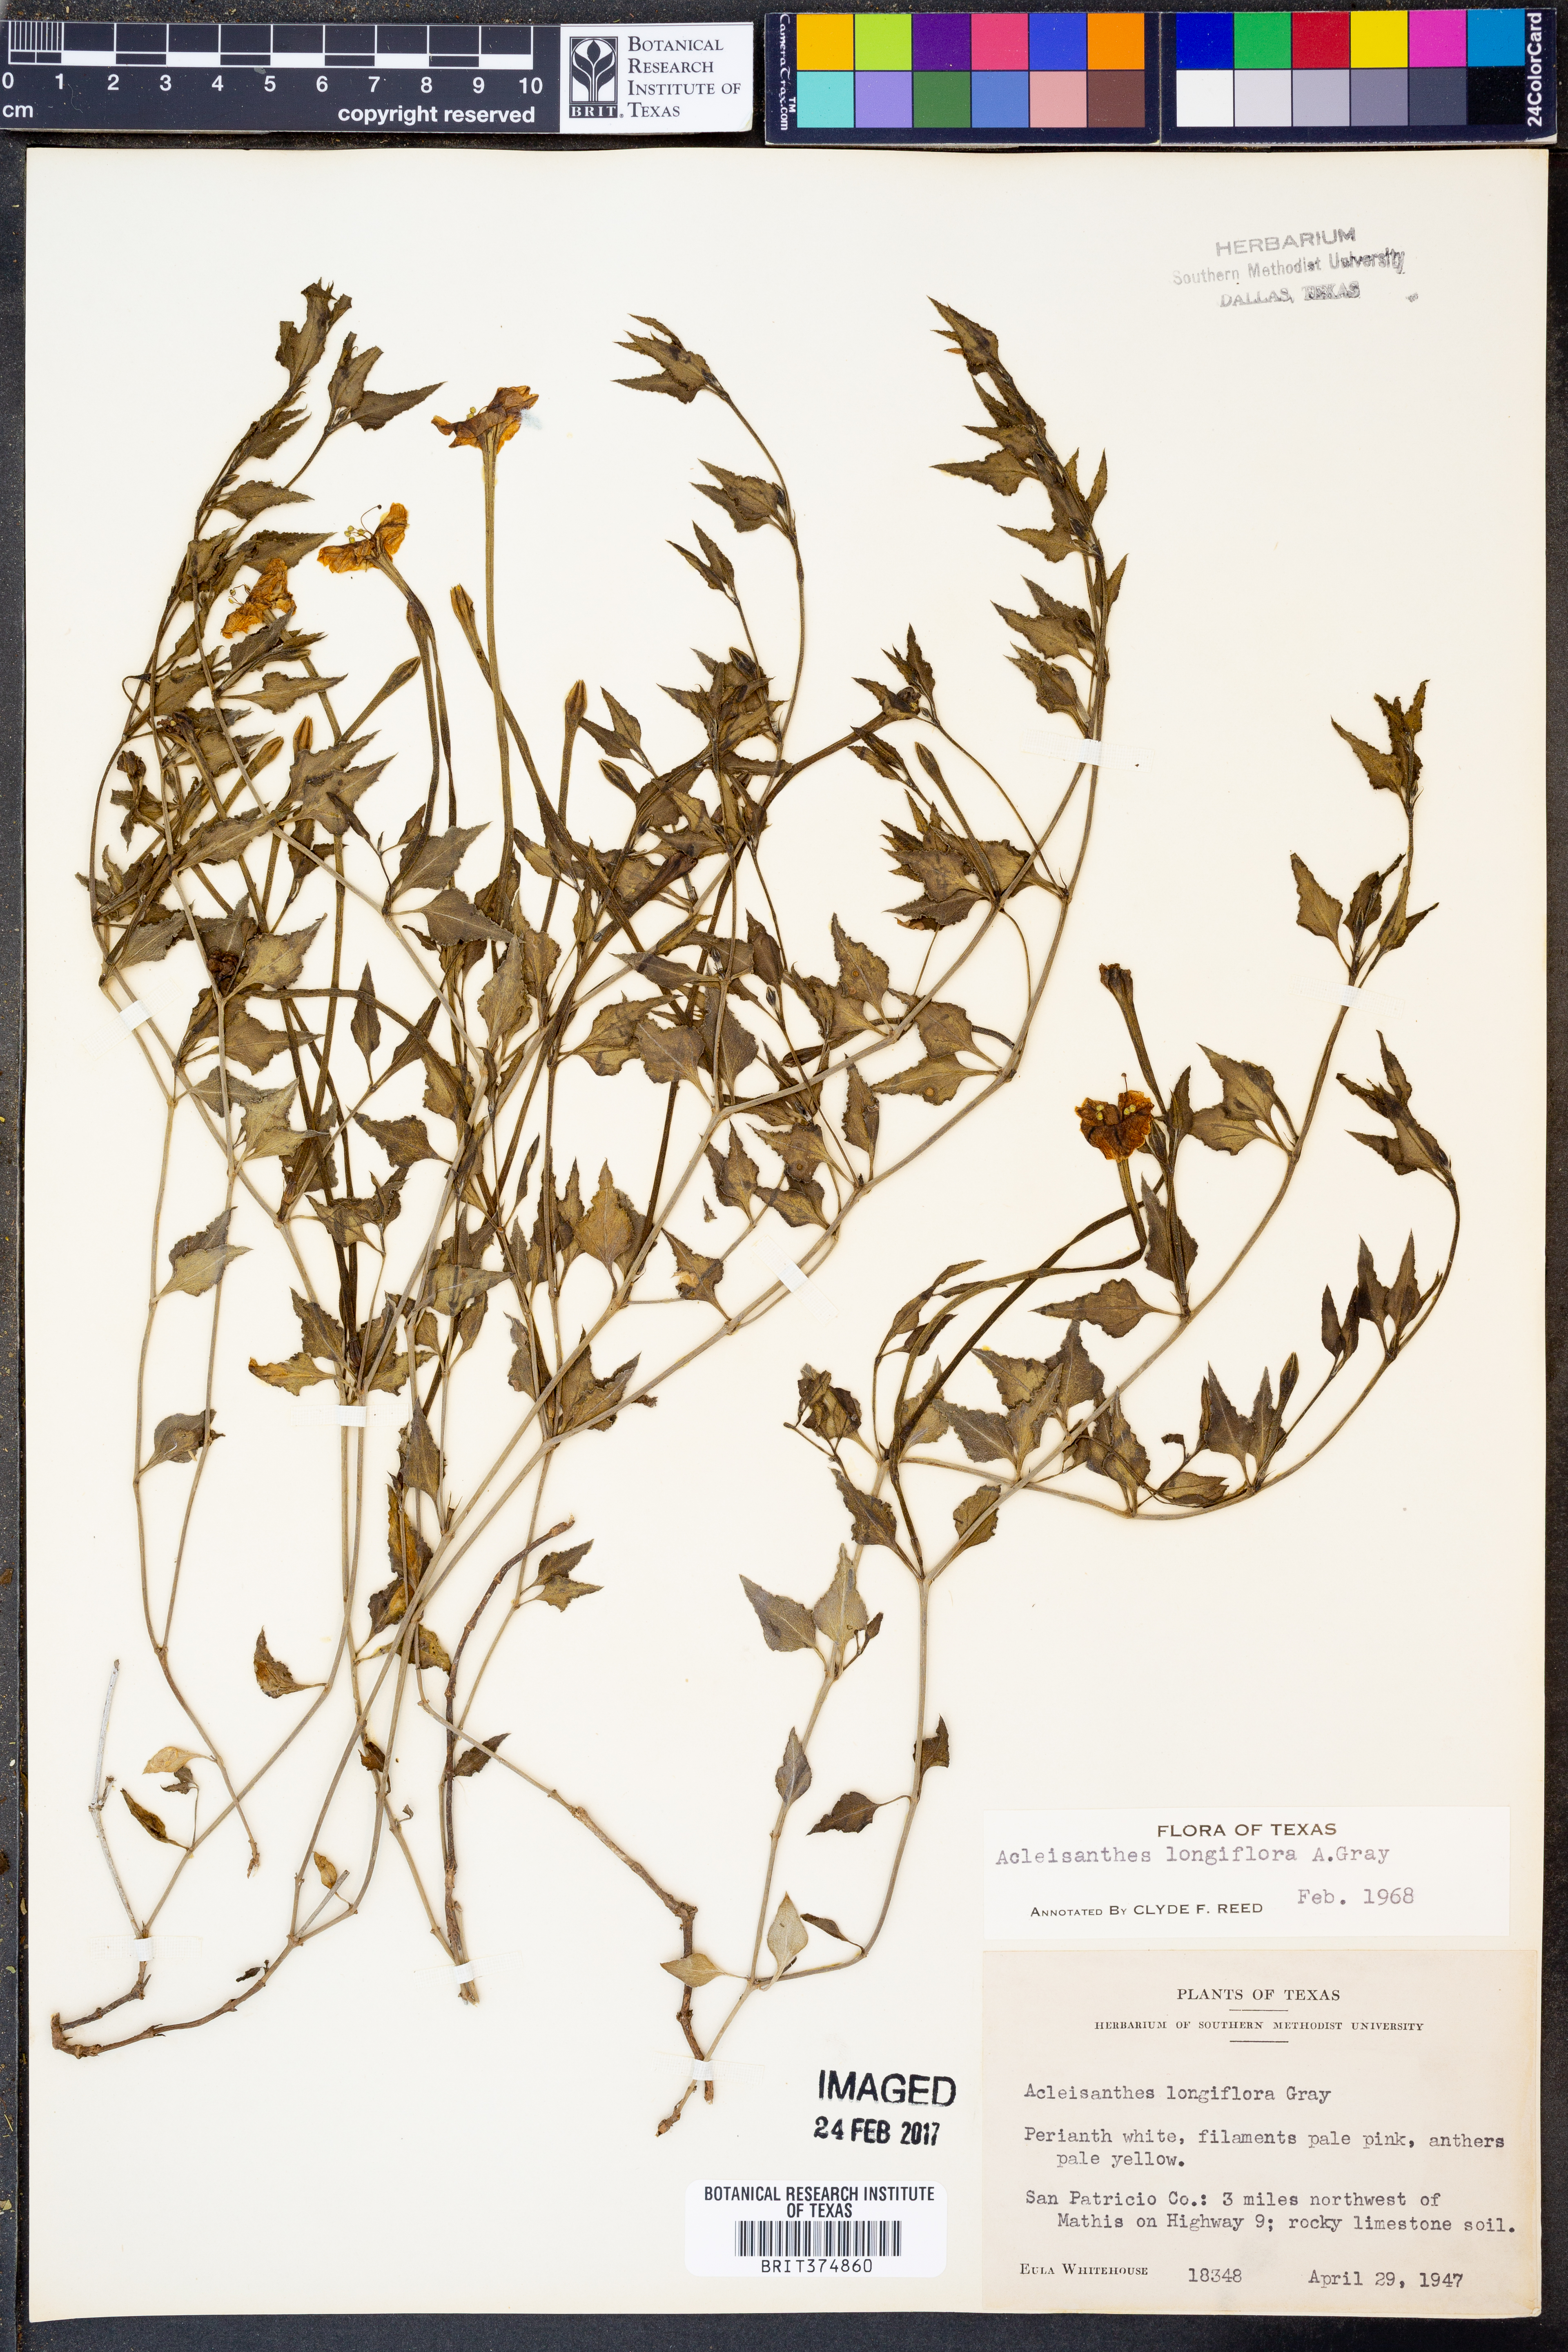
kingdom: Plantae
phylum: Tracheophyta
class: Magnoliopsida
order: Caryophyllales
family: Nyctaginaceae
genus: Acleisanthes
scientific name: Acleisanthes longiflora
